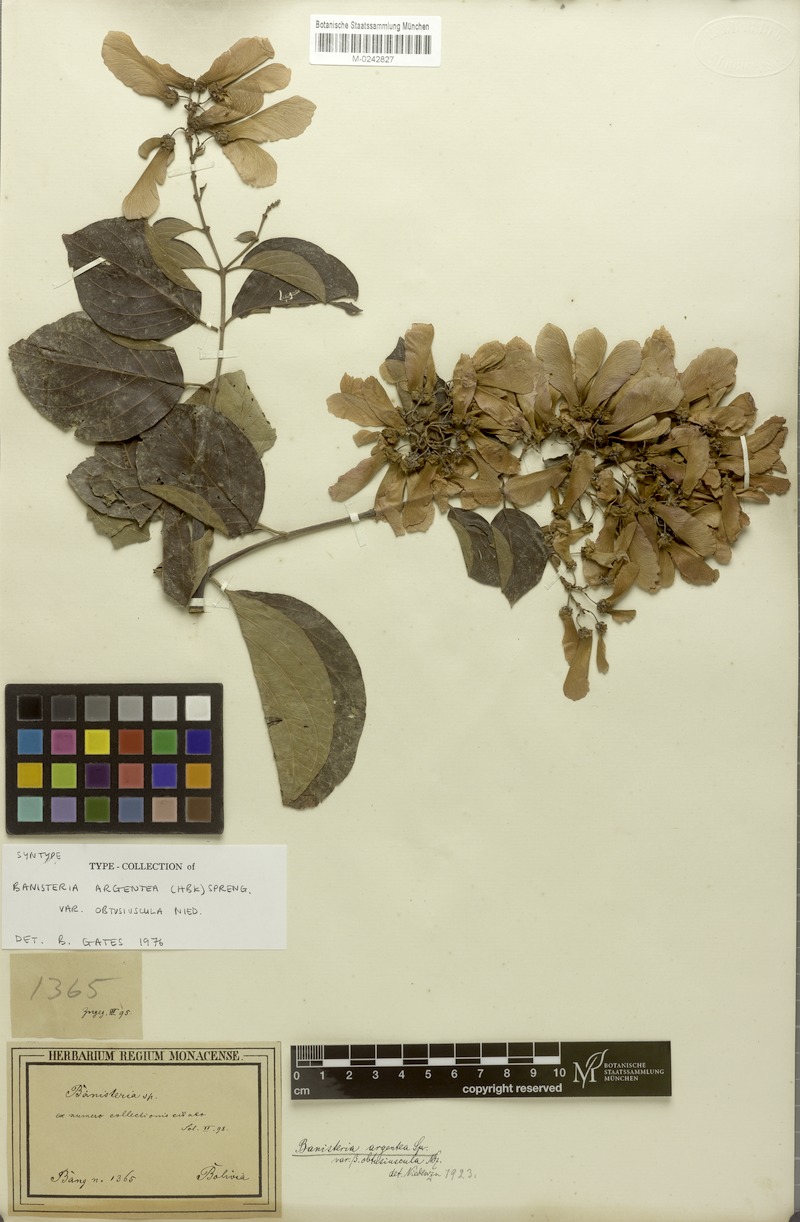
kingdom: Plantae
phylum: Tracheophyta
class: Magnoliopsida
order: Malpighiales
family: Malpighiaceae
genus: Banisteriopsis
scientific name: Banisteriopsis muricata
